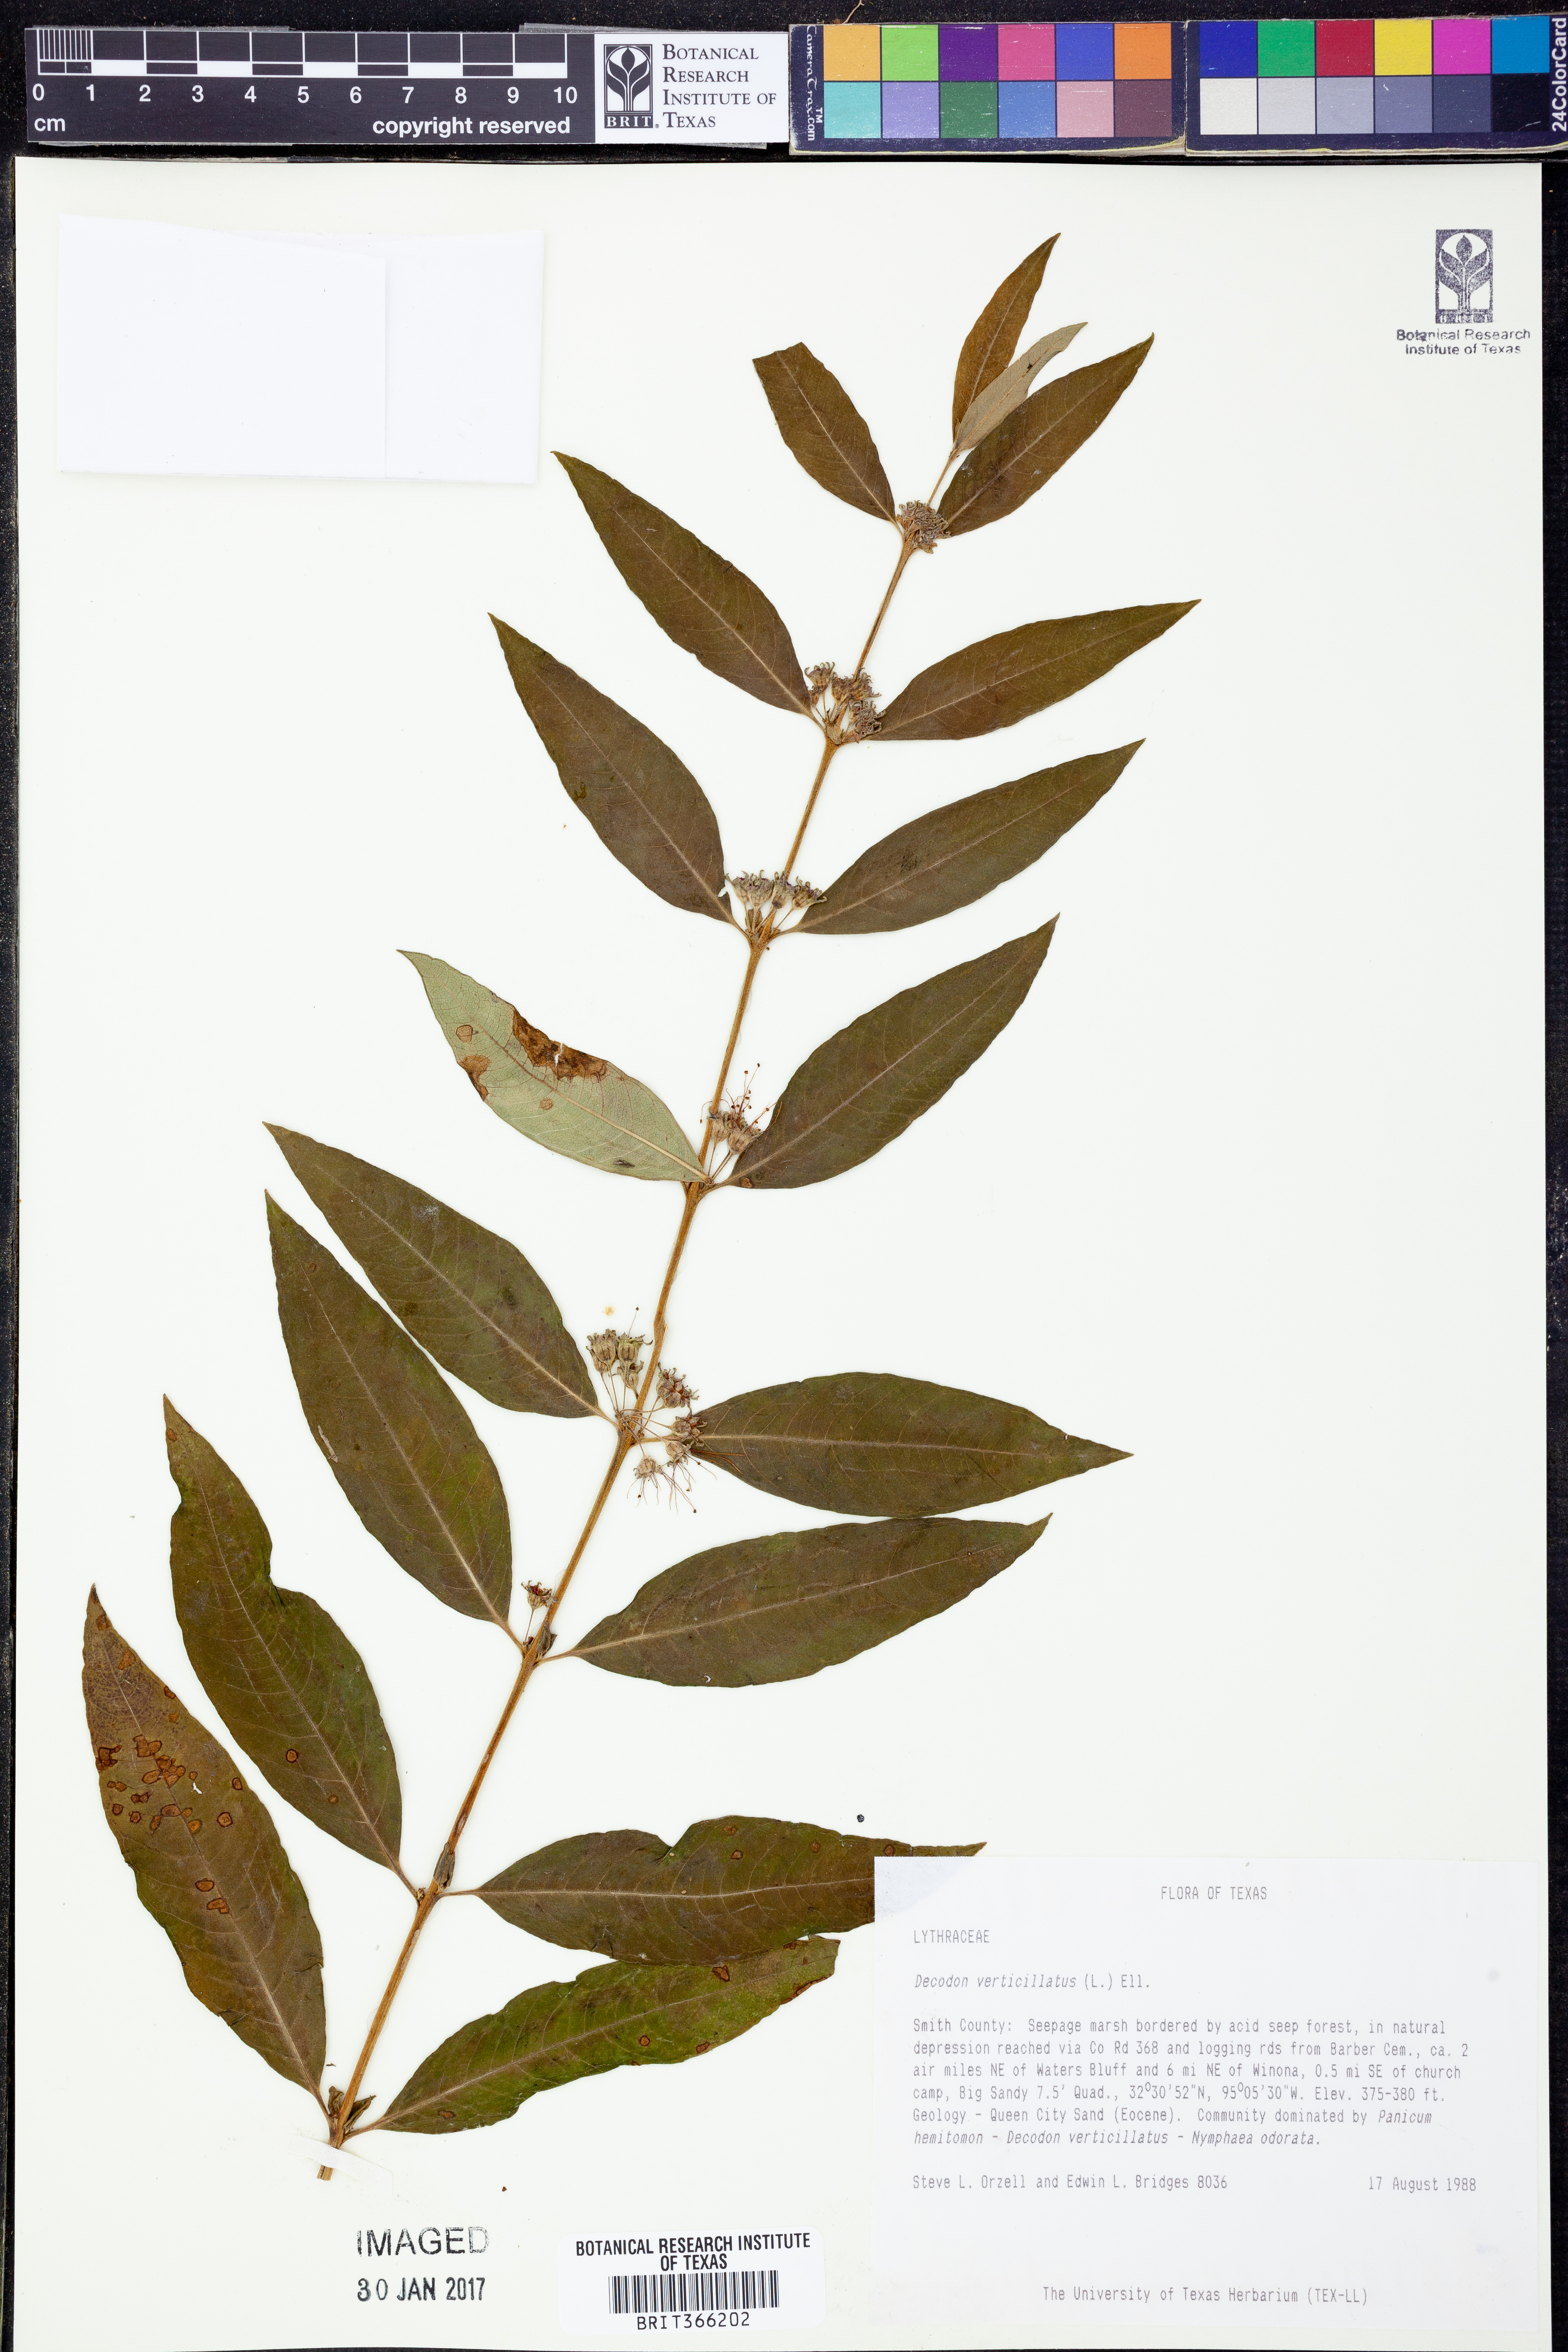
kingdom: Plantae
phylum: Tracheophyta
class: Magnoliopsida
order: Myrtales
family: Lythraceae
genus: Decodon
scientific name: Decodon verticillatus
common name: Hairy swamp loosestrife
